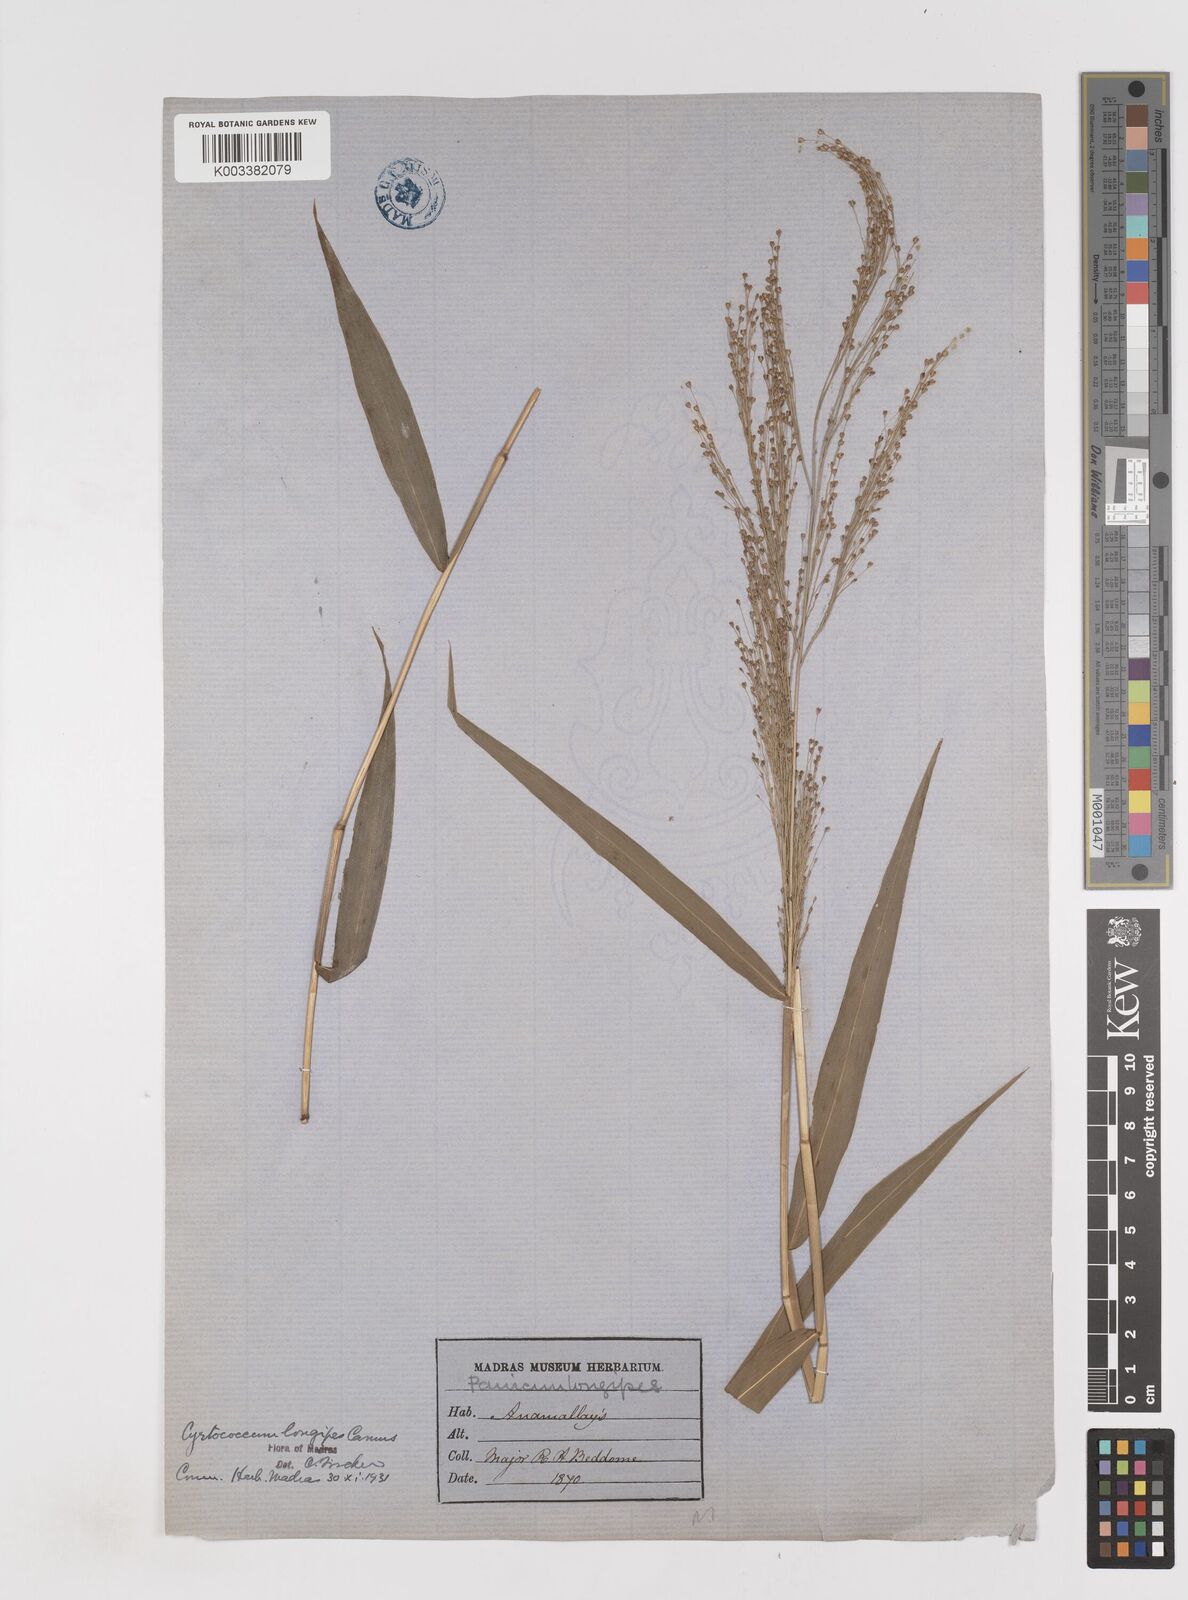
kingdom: Plantae
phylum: Tracheophyta
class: Liliopsida
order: Poales
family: Poaceae
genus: Cyrtococcum
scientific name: Cyrtococcum longipes
